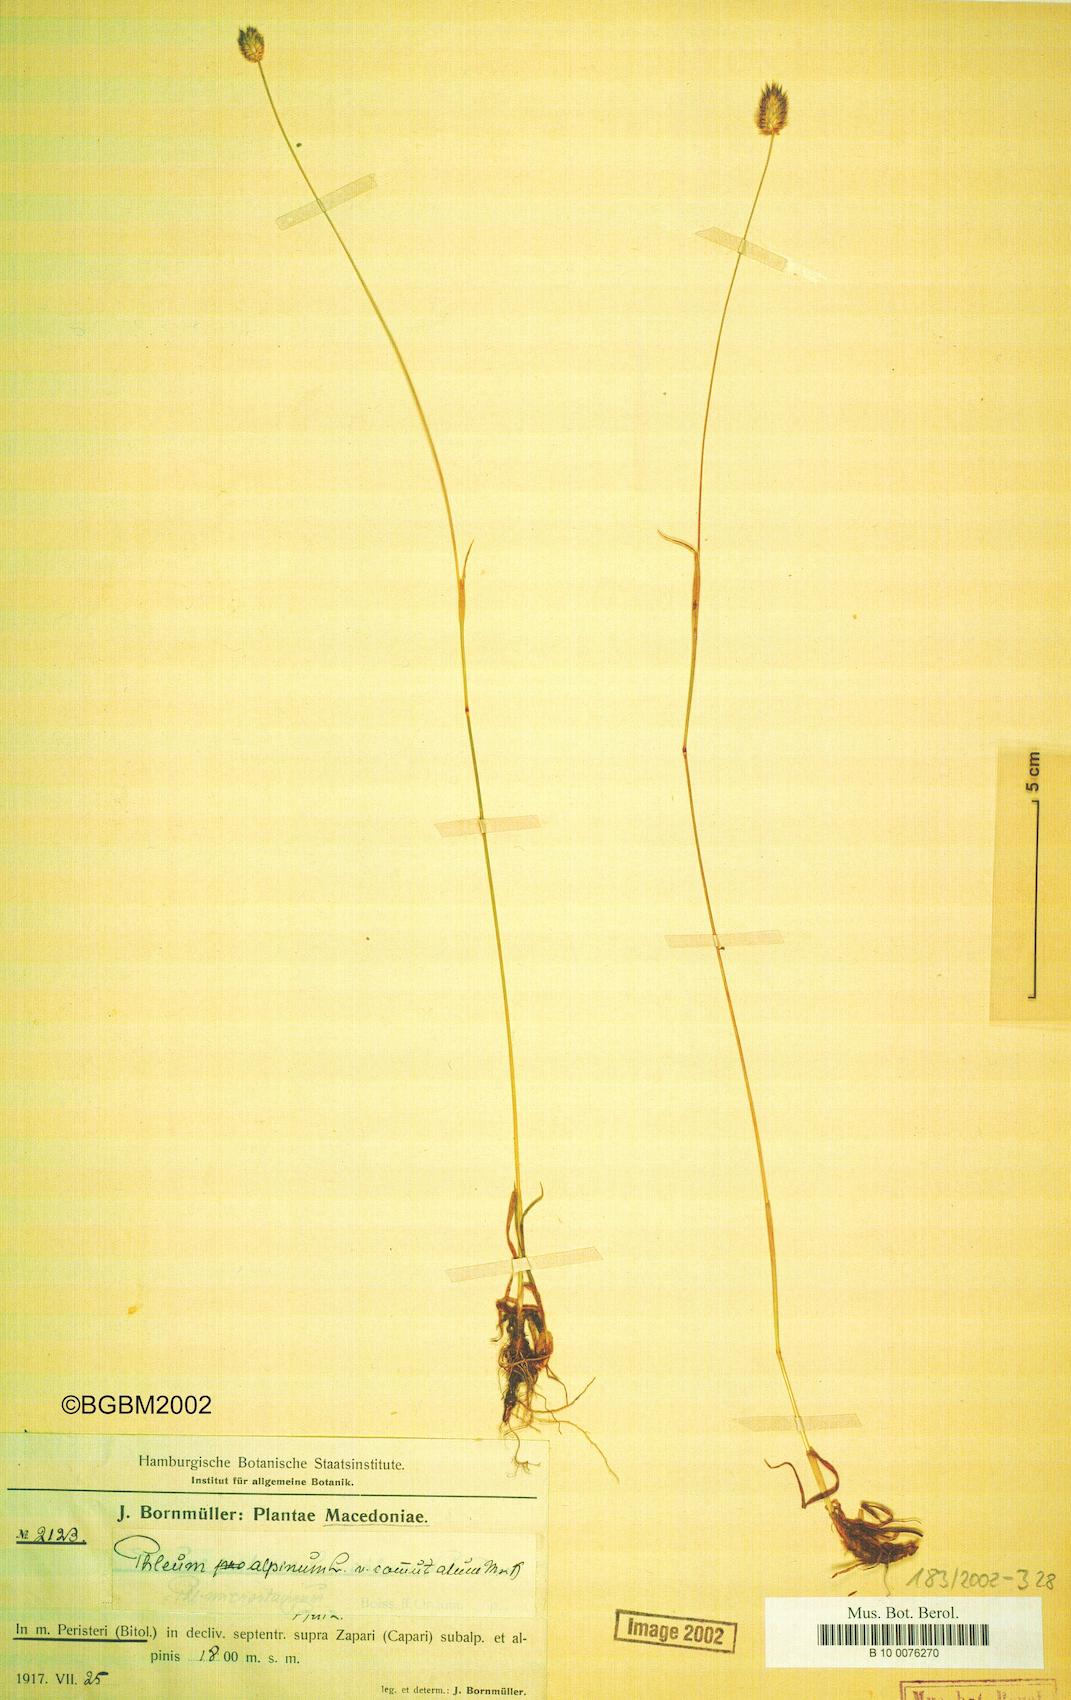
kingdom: Plantae
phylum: Tracheophyta
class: Liliopsida
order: Poales
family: Poaceae
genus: Phleum
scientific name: Phleum alpinum
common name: Alpine cat's-tail
